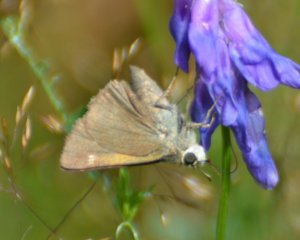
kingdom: Animalia
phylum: Arthropoda
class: Insecta
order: Lepidoptera
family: Hesperiidae
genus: Polites
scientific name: Polites themistocles
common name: Tawny-edged Skipper
